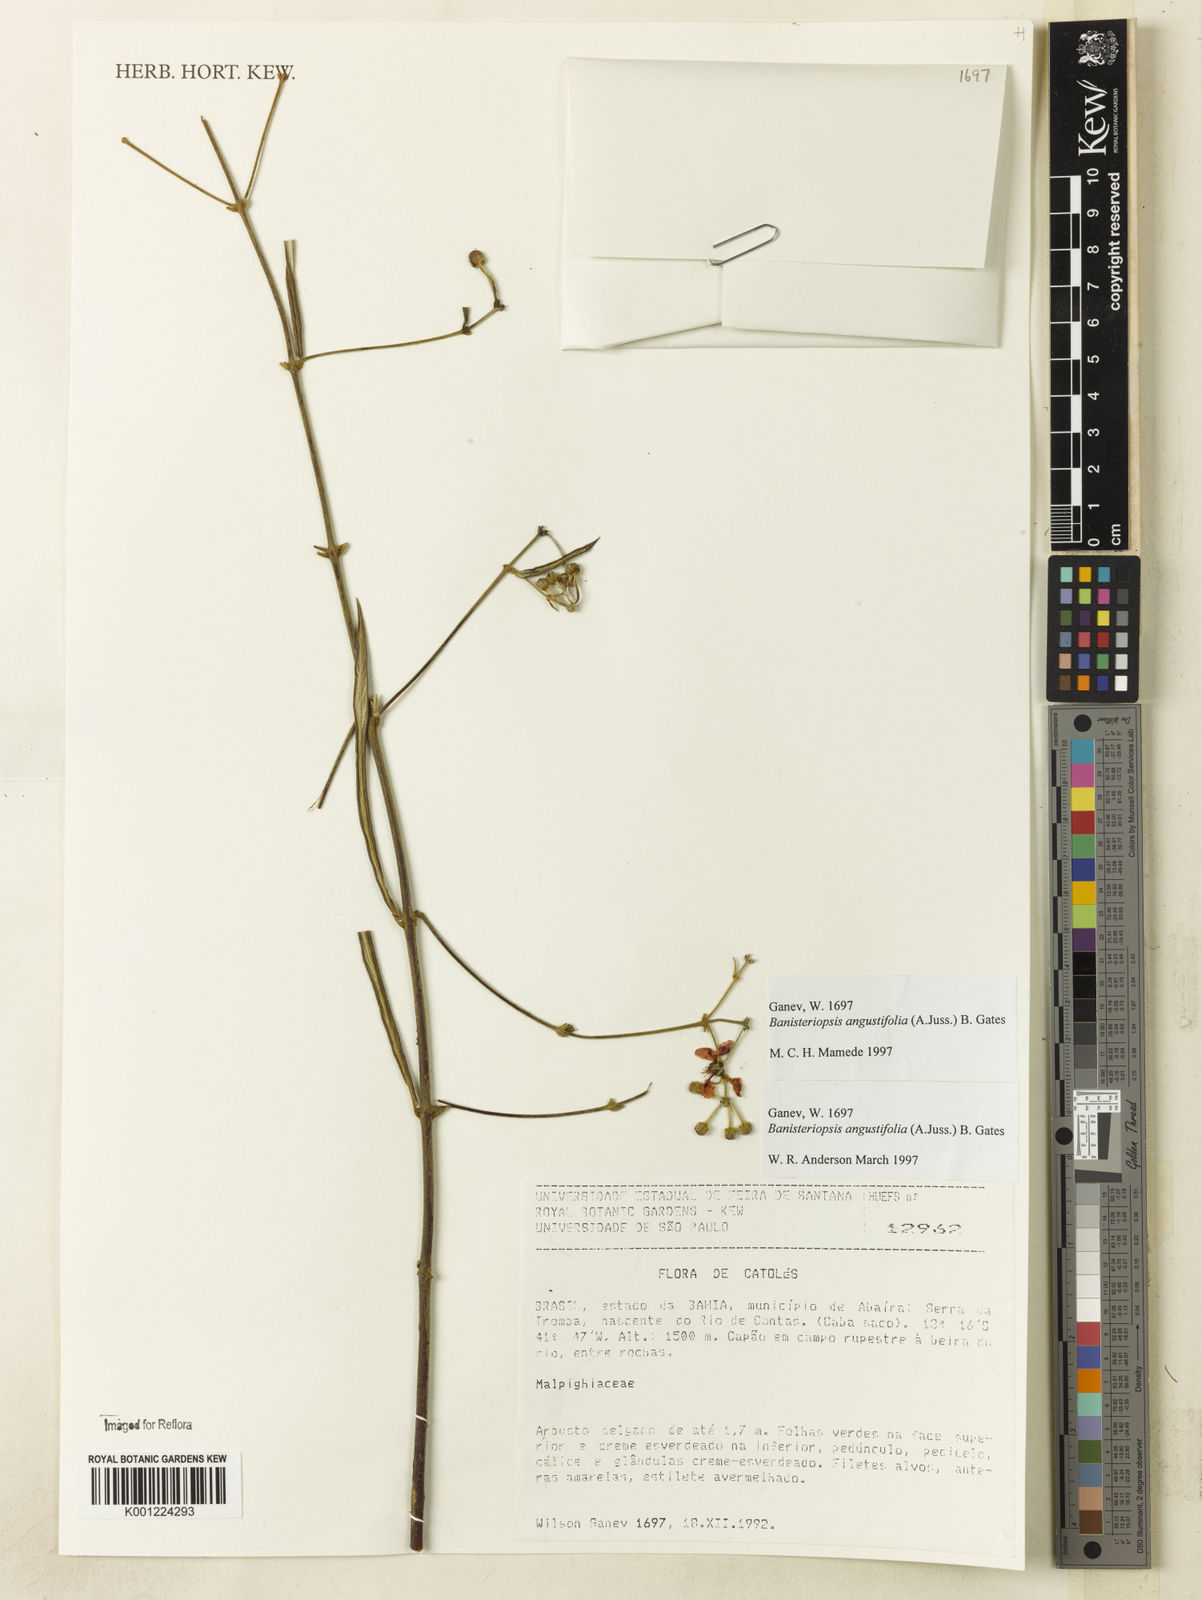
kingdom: Plantae
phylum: Tracheophyta
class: Magnoliopsida
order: Malpighiales
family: Malpighiaceae
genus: Banisteriopsis
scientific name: Banisteriopsis angustifolia
